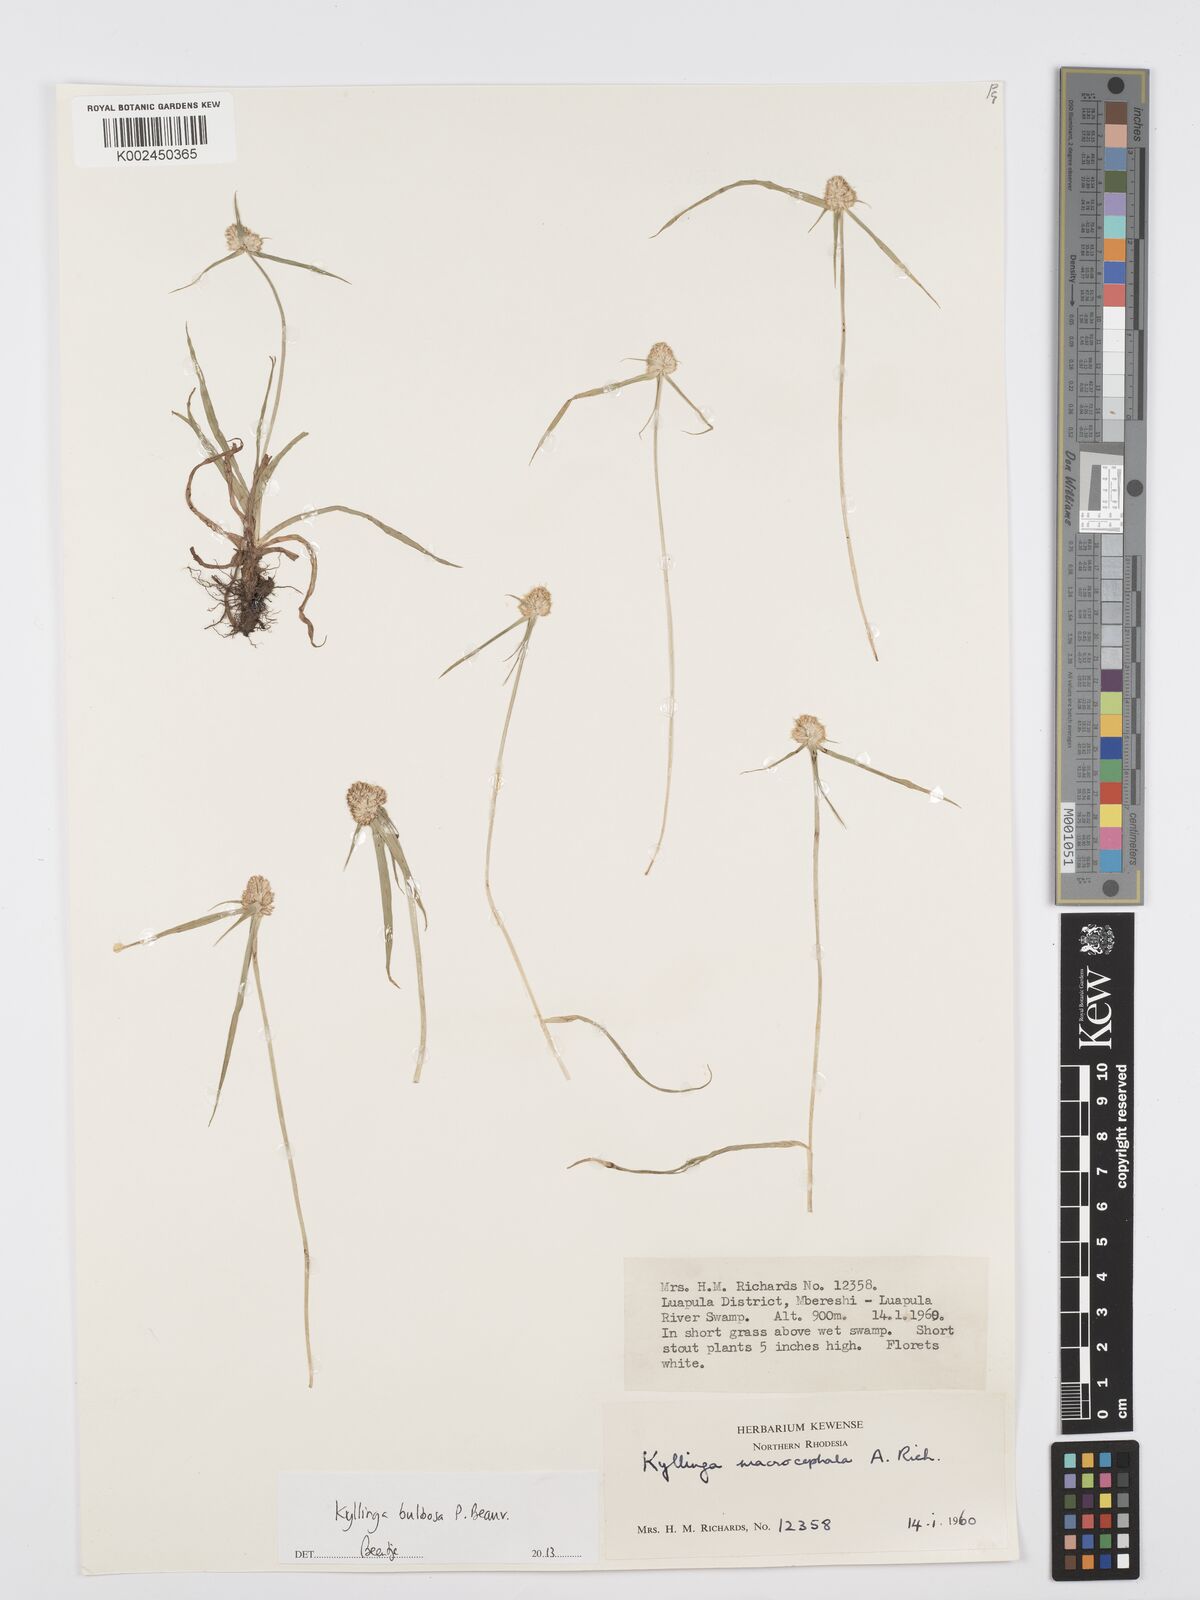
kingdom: Plantae
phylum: Tracheophyta
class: Liliopsida
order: Poales
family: Cyperaceae
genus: Cyperus
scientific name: Cyperus
